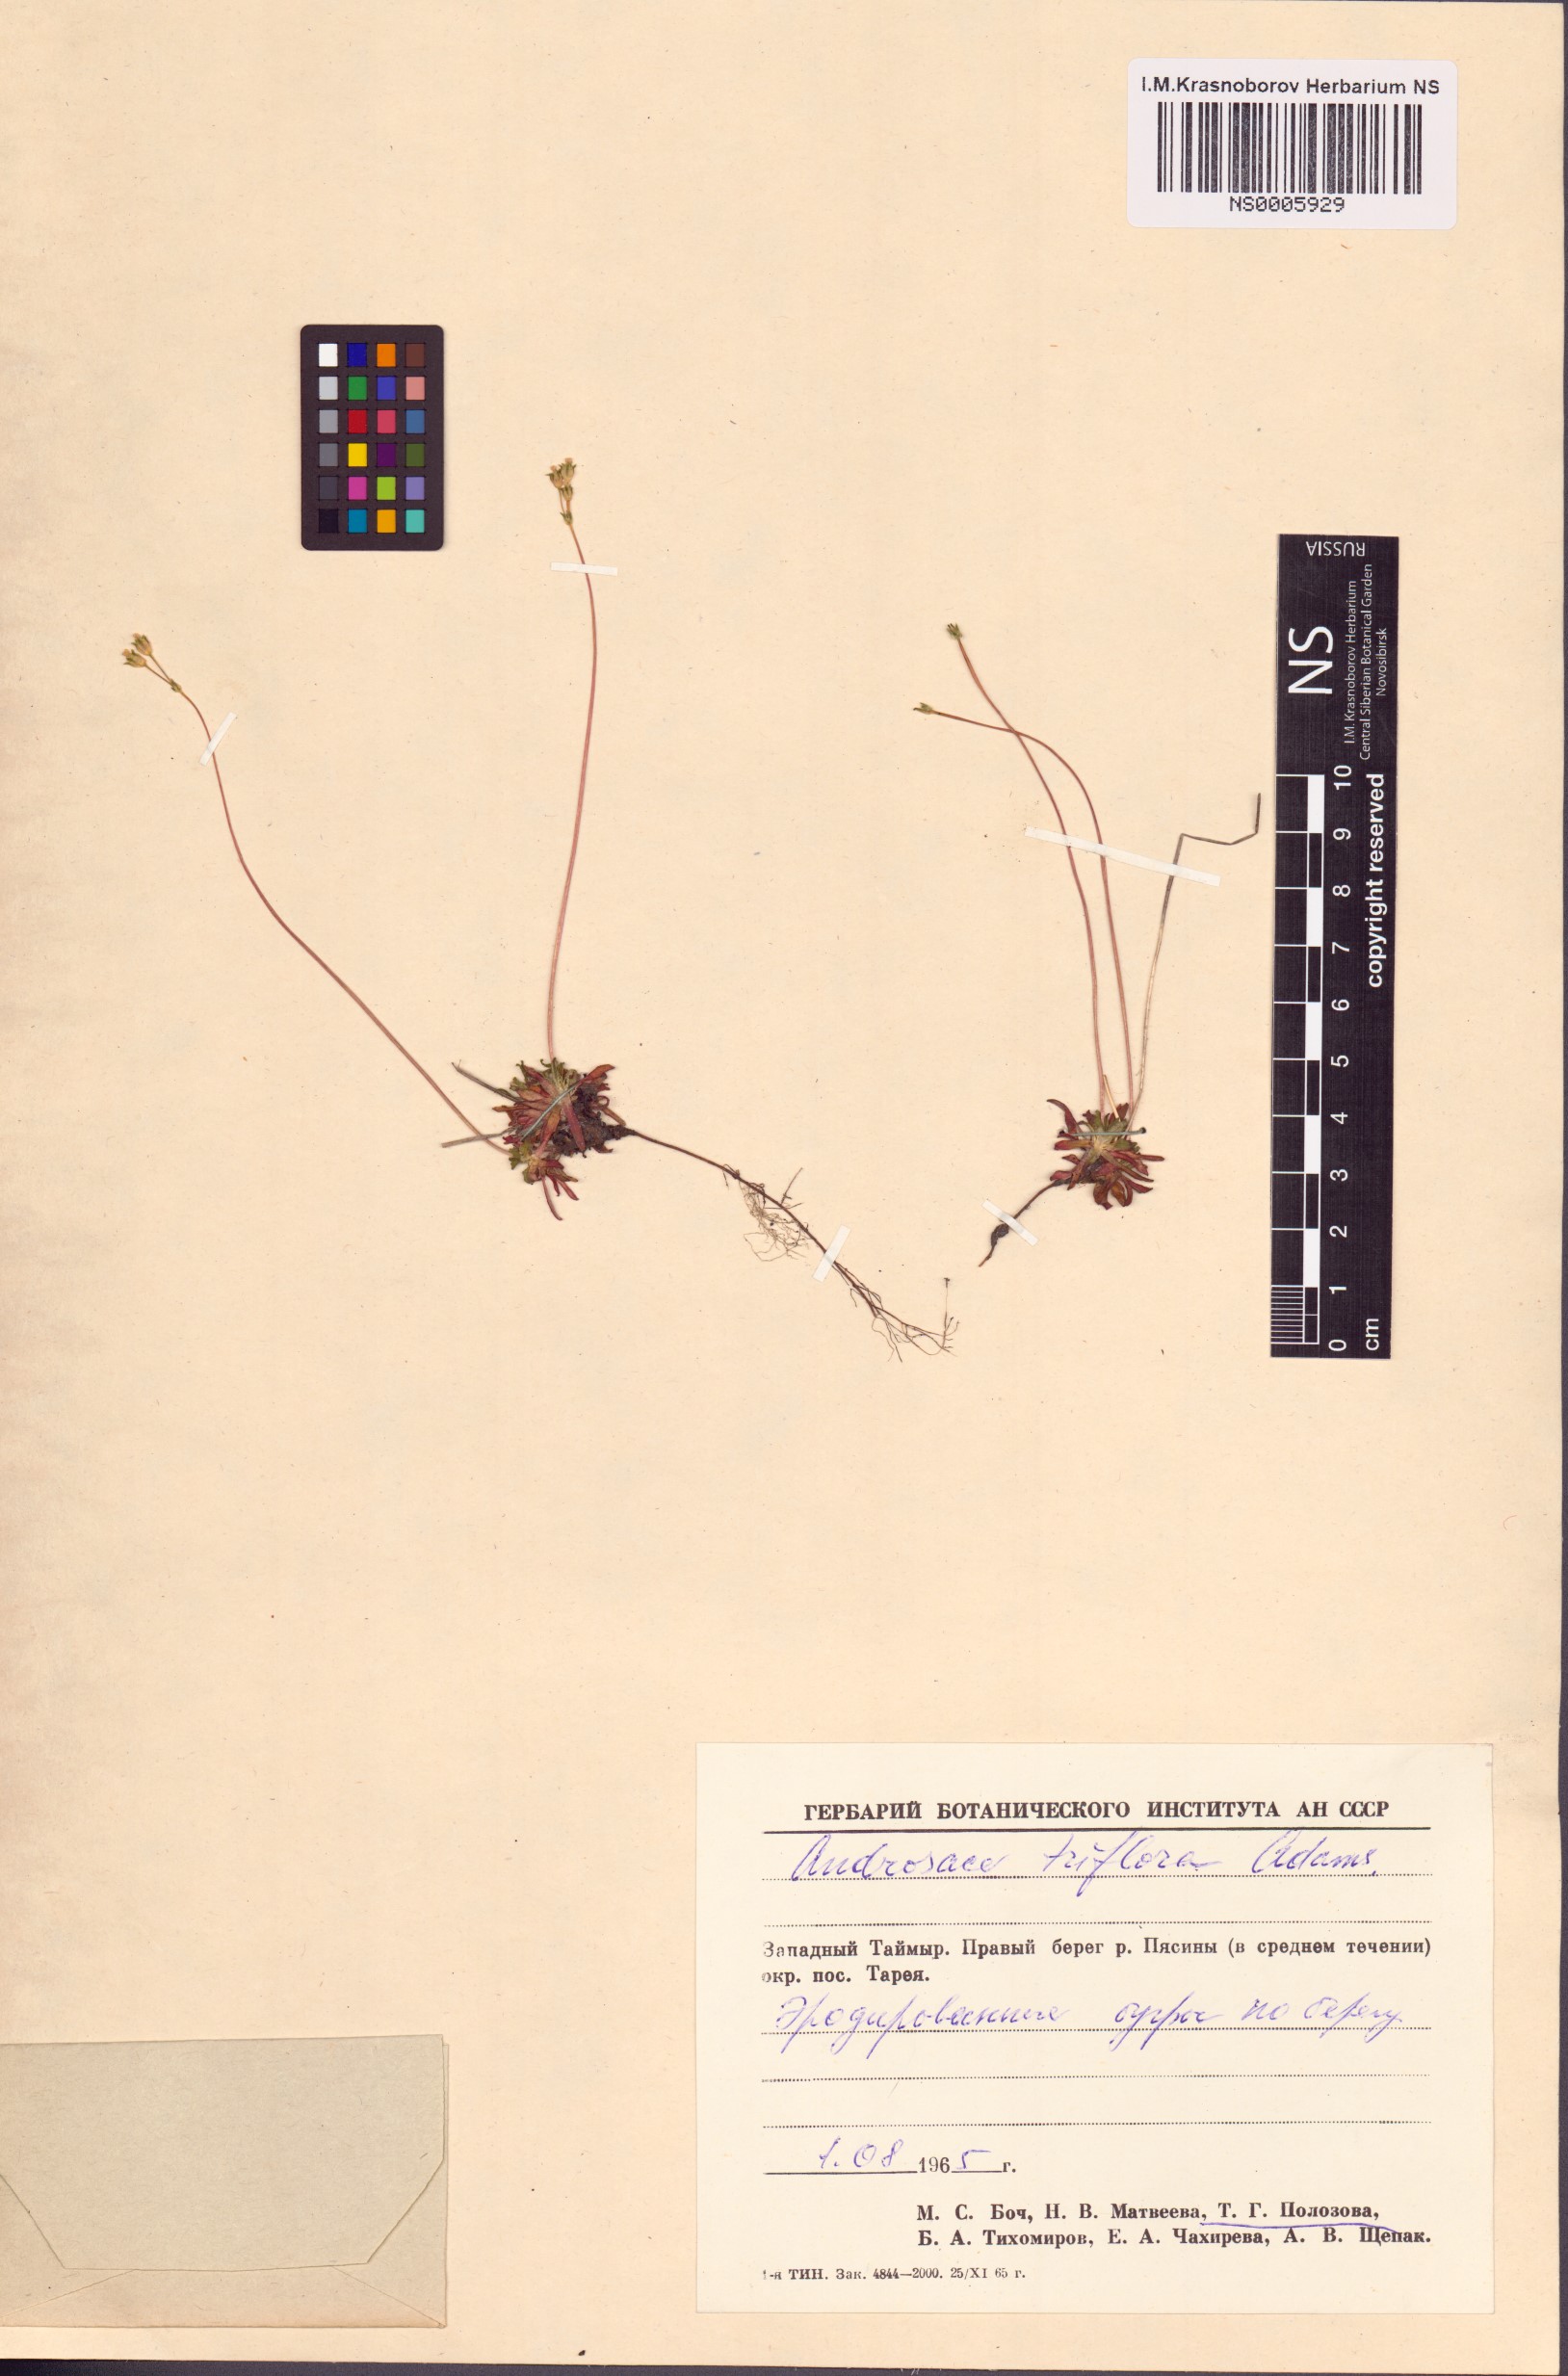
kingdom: Plantae
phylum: Tracheophyta
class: Magnoliopsida
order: Ericales
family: Primulaceae
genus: Androsace
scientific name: Androsace triflora
